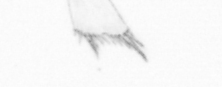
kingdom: Animalia
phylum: Arthropoda
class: Copepoda
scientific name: Copepoda
